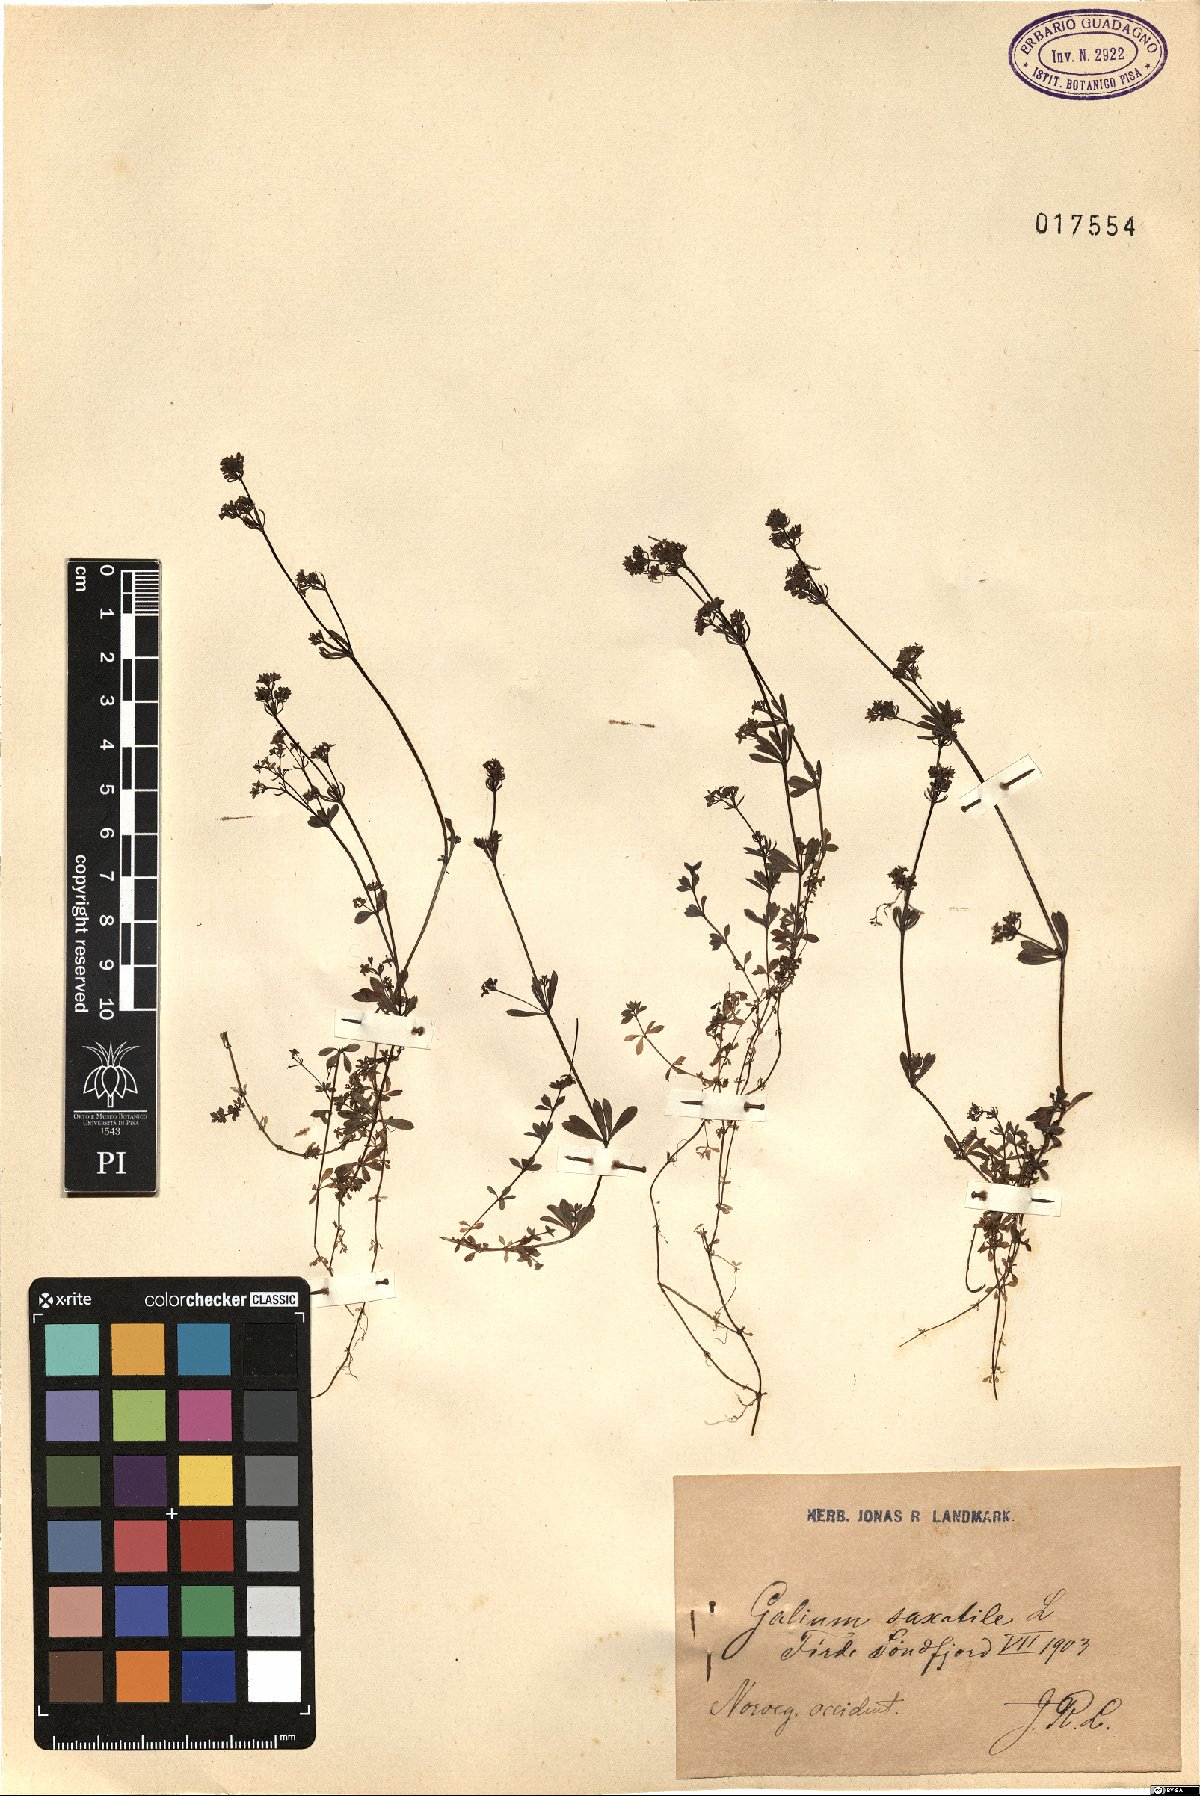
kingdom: Plantae
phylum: Tracheophyta
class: Magnoliopsida
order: Gentianales
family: Rubiaceae
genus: Galium
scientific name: Galium saxatile
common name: Heath bedstraw
